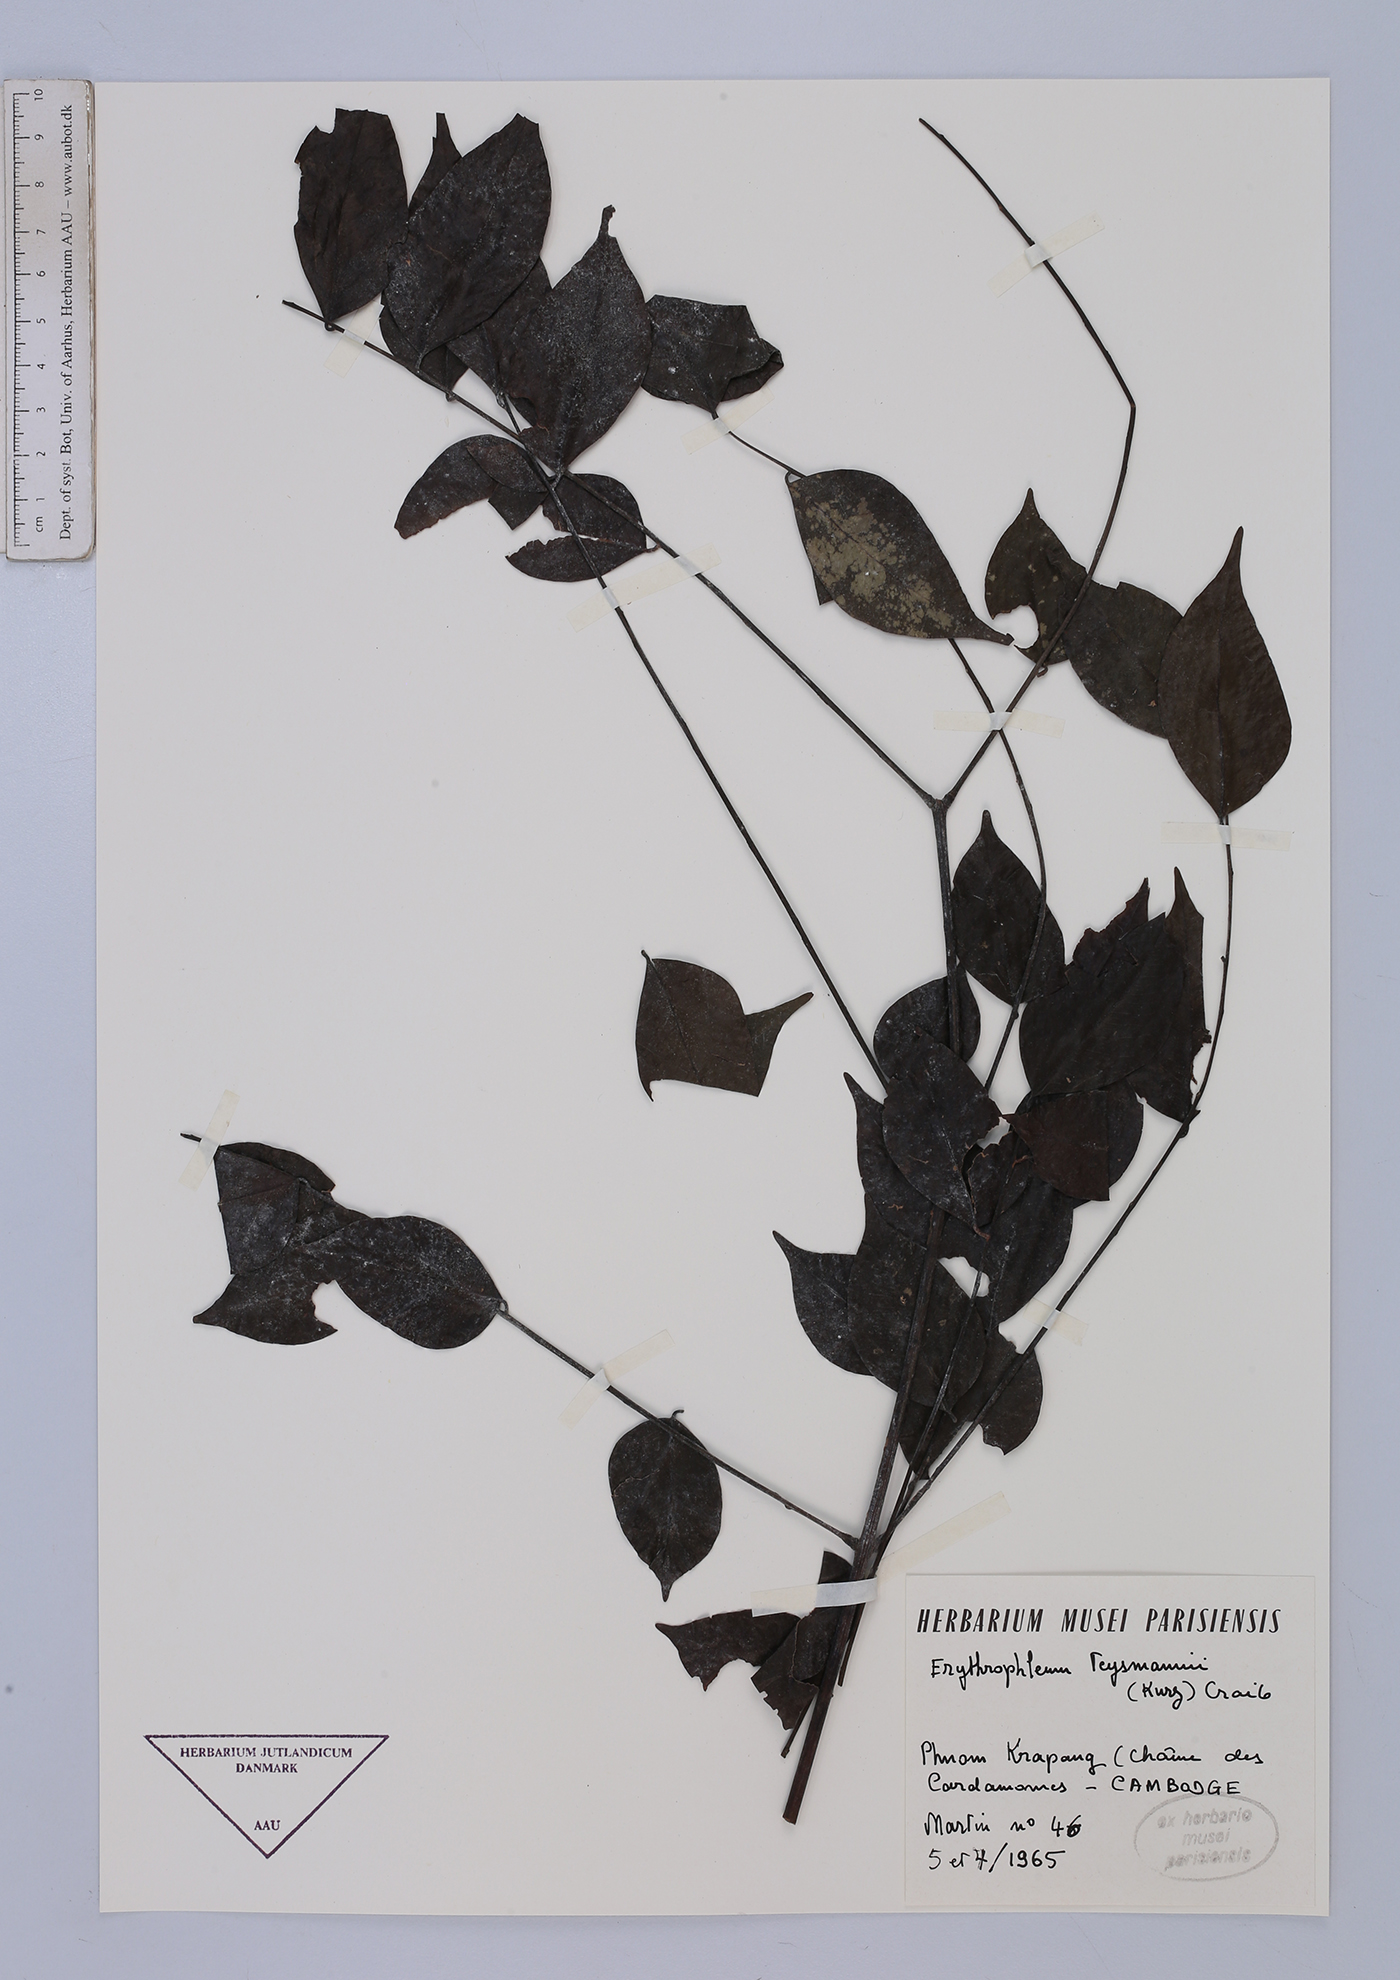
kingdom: Plantae
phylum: Tracheophyta
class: Magnoliopsida
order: Fabales
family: Fabaceae
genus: Erythrophleum
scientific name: Erythrophleum teysmannii
